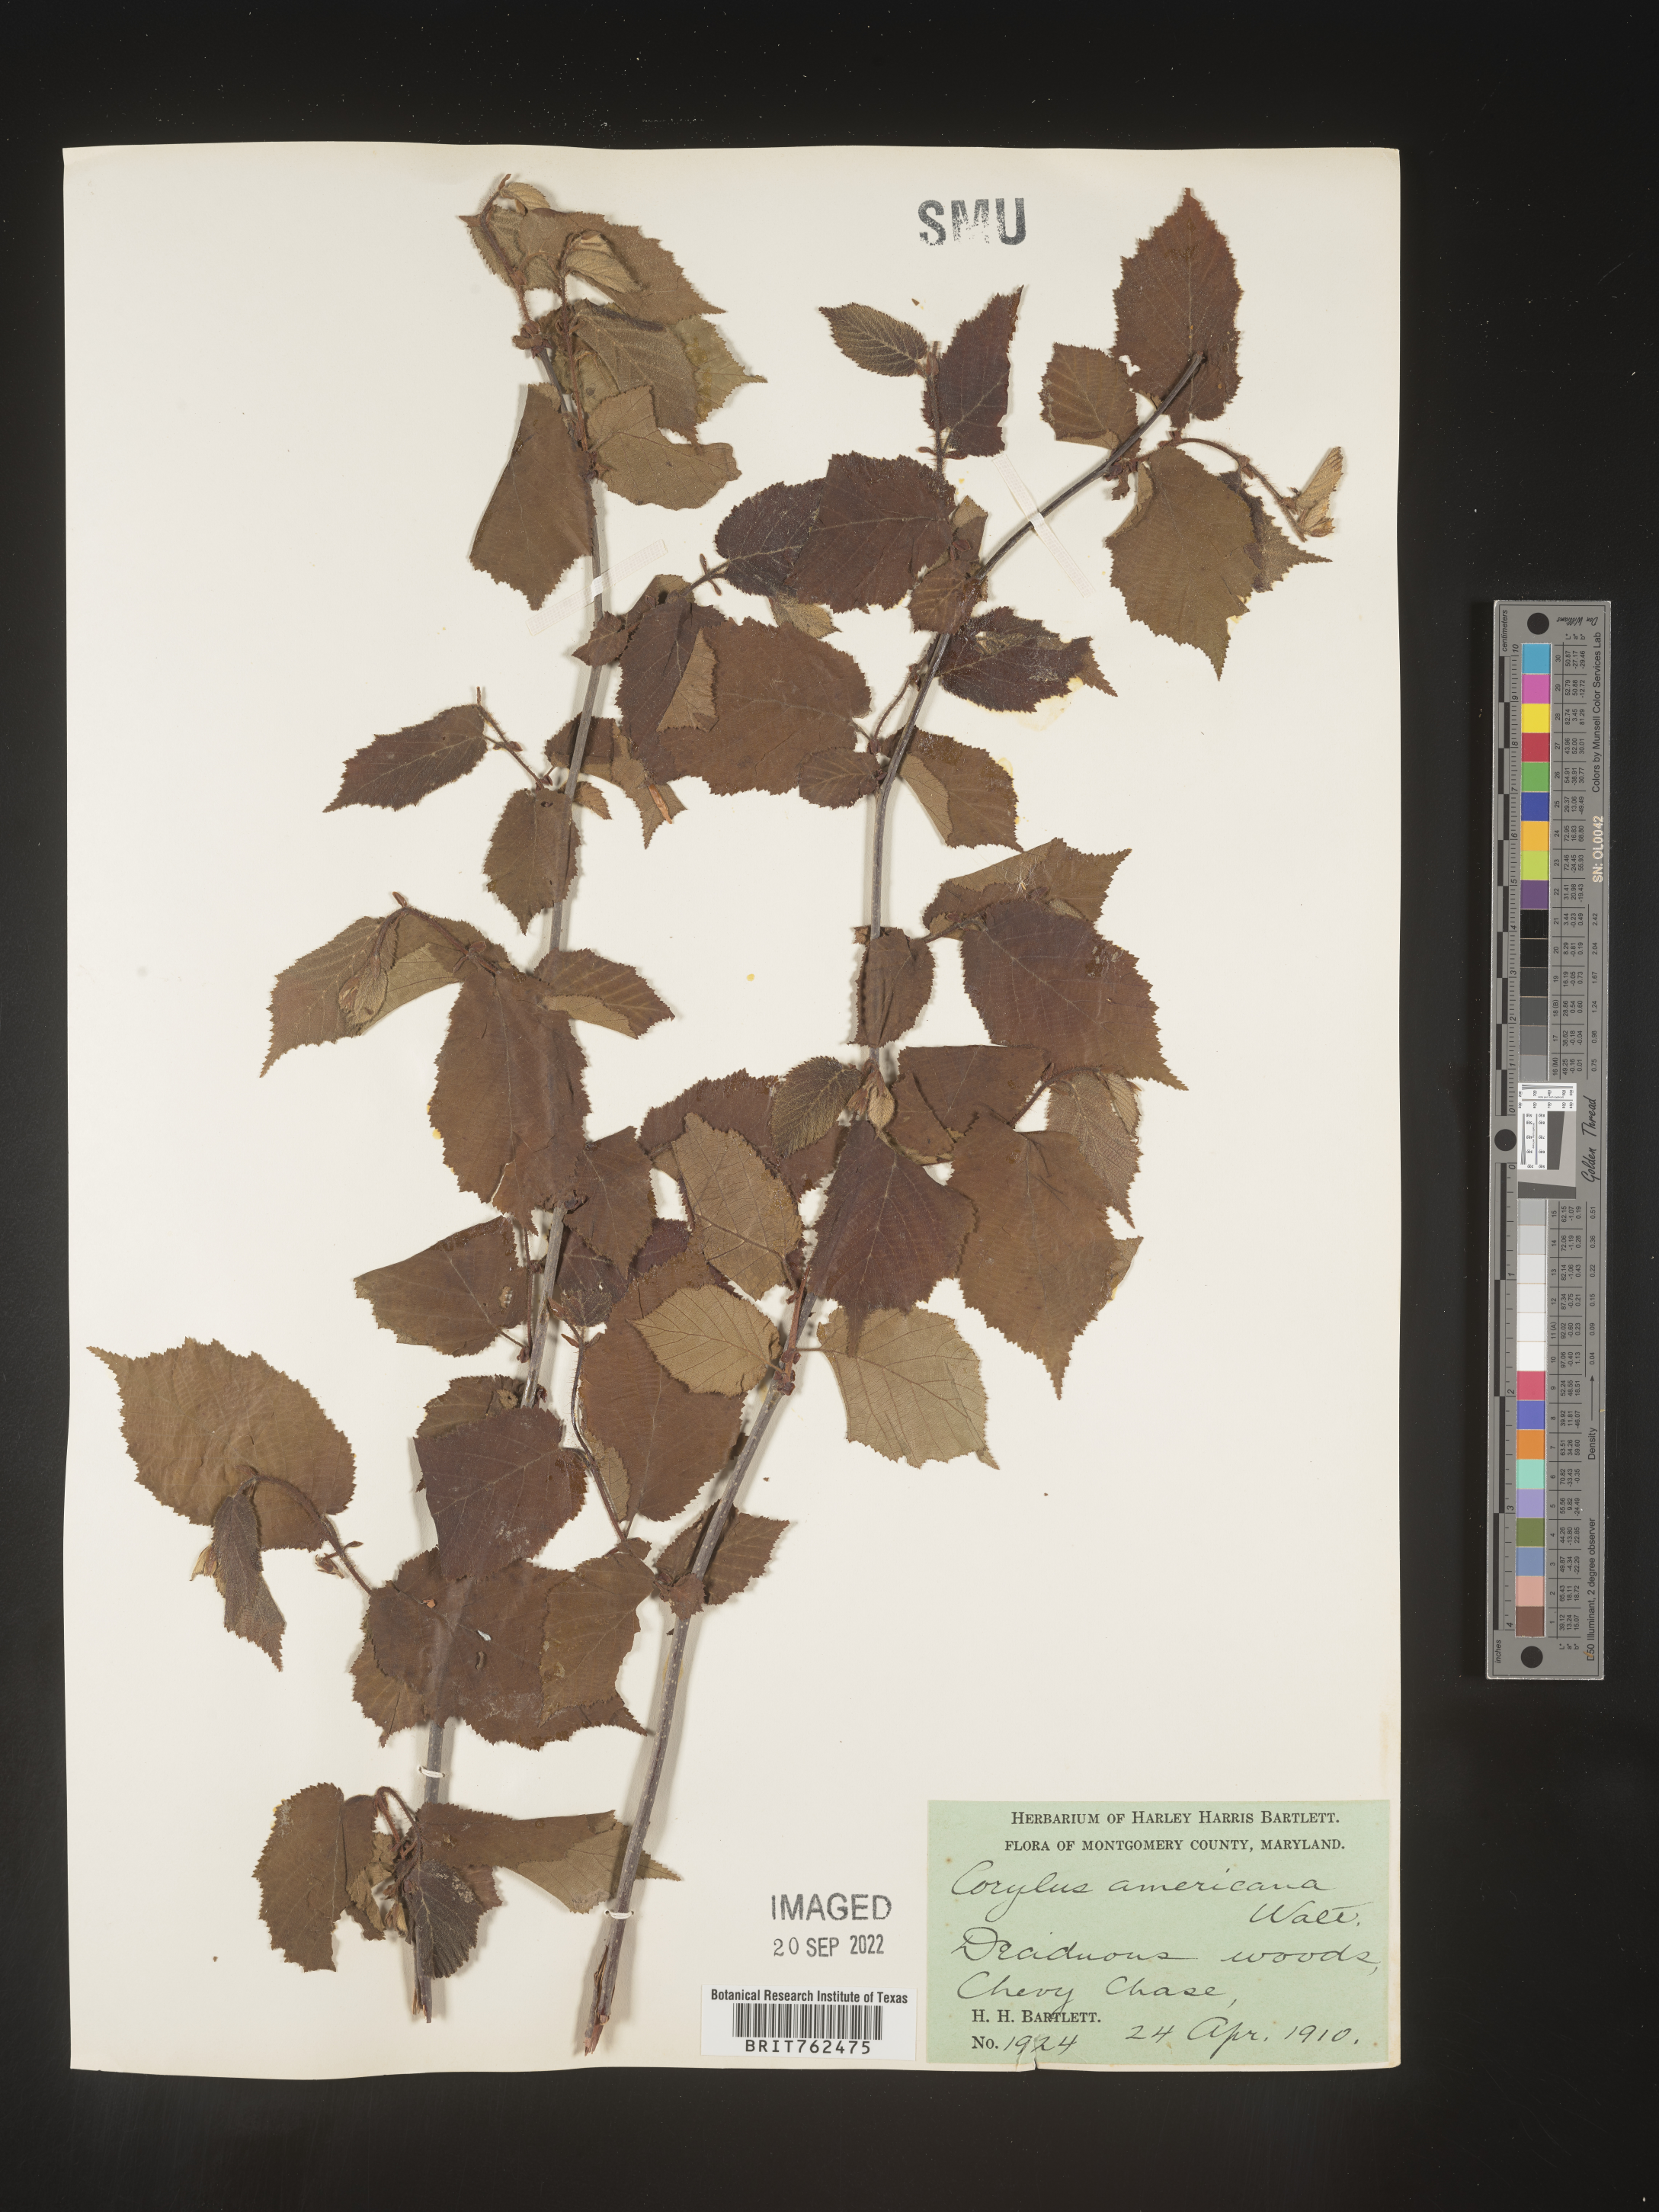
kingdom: Plantae
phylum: Tracheophyta
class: Magnoliopsida
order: Fagales
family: Betulaceae
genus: Corylus
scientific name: Corylus americana
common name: American hazel
